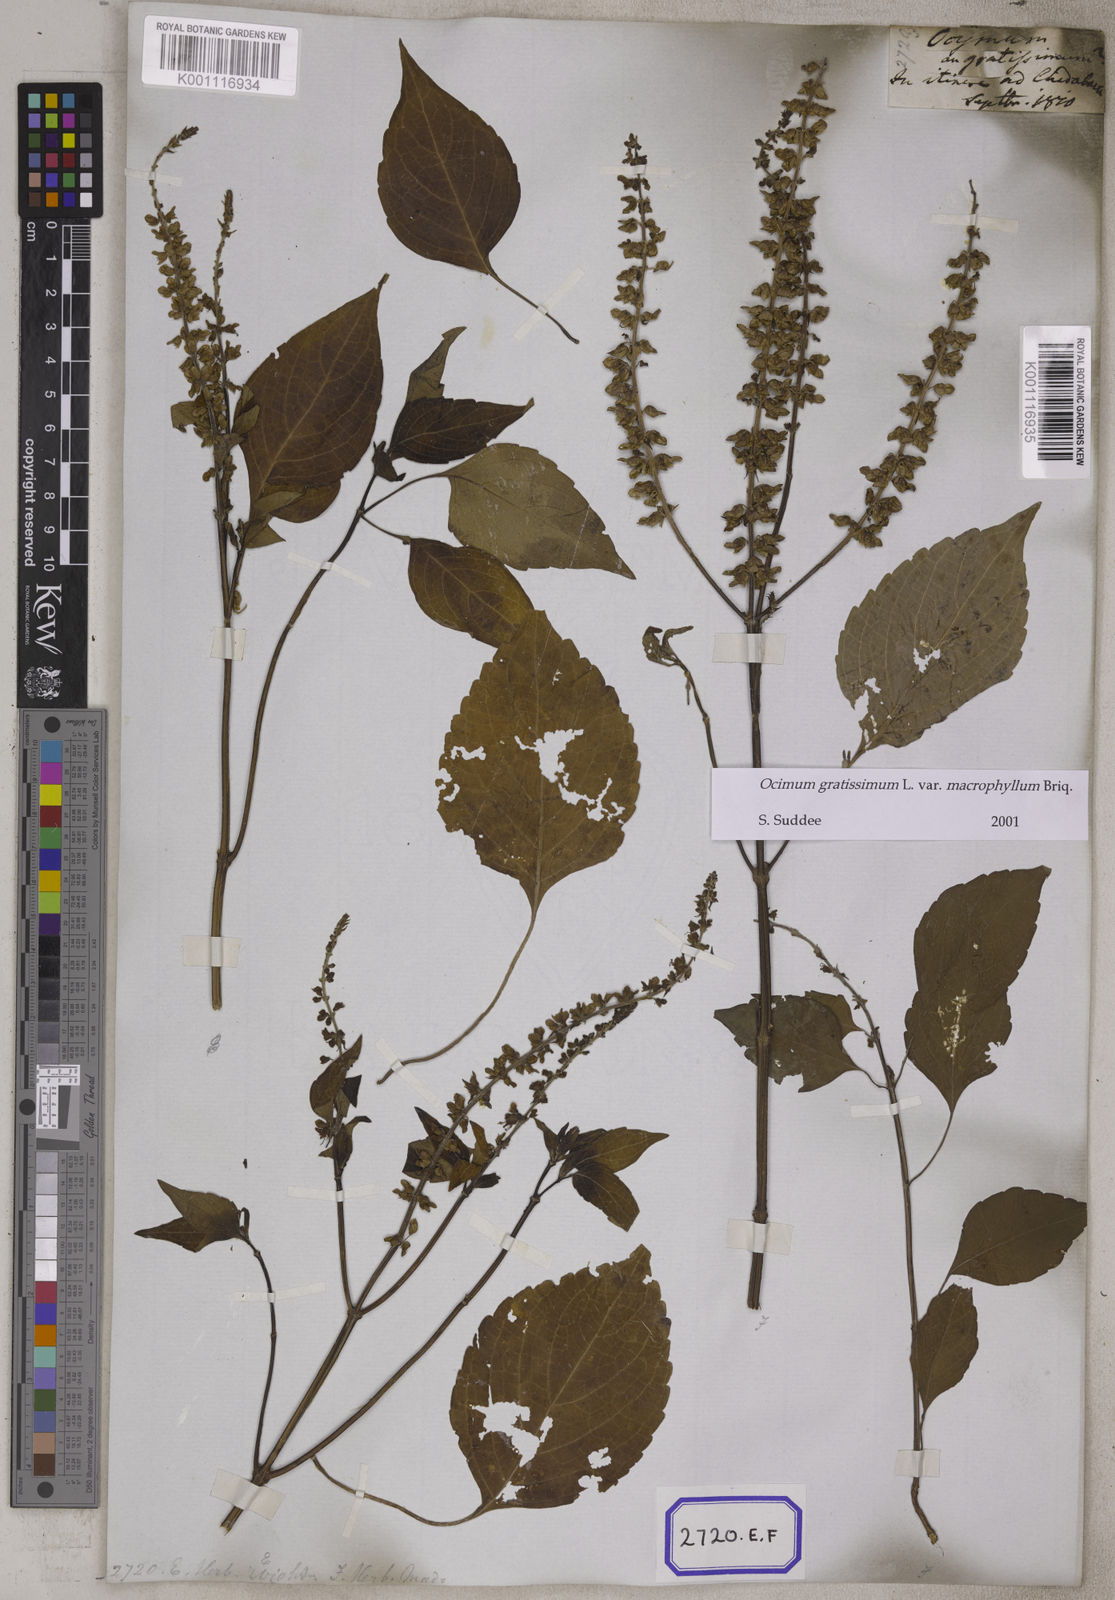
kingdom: Plantae
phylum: Tracheophyta
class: Magnoliopsida
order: Lamiales
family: Lamiaceae
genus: Ocimum
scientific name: Ocimum gratissimum
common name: African basil
